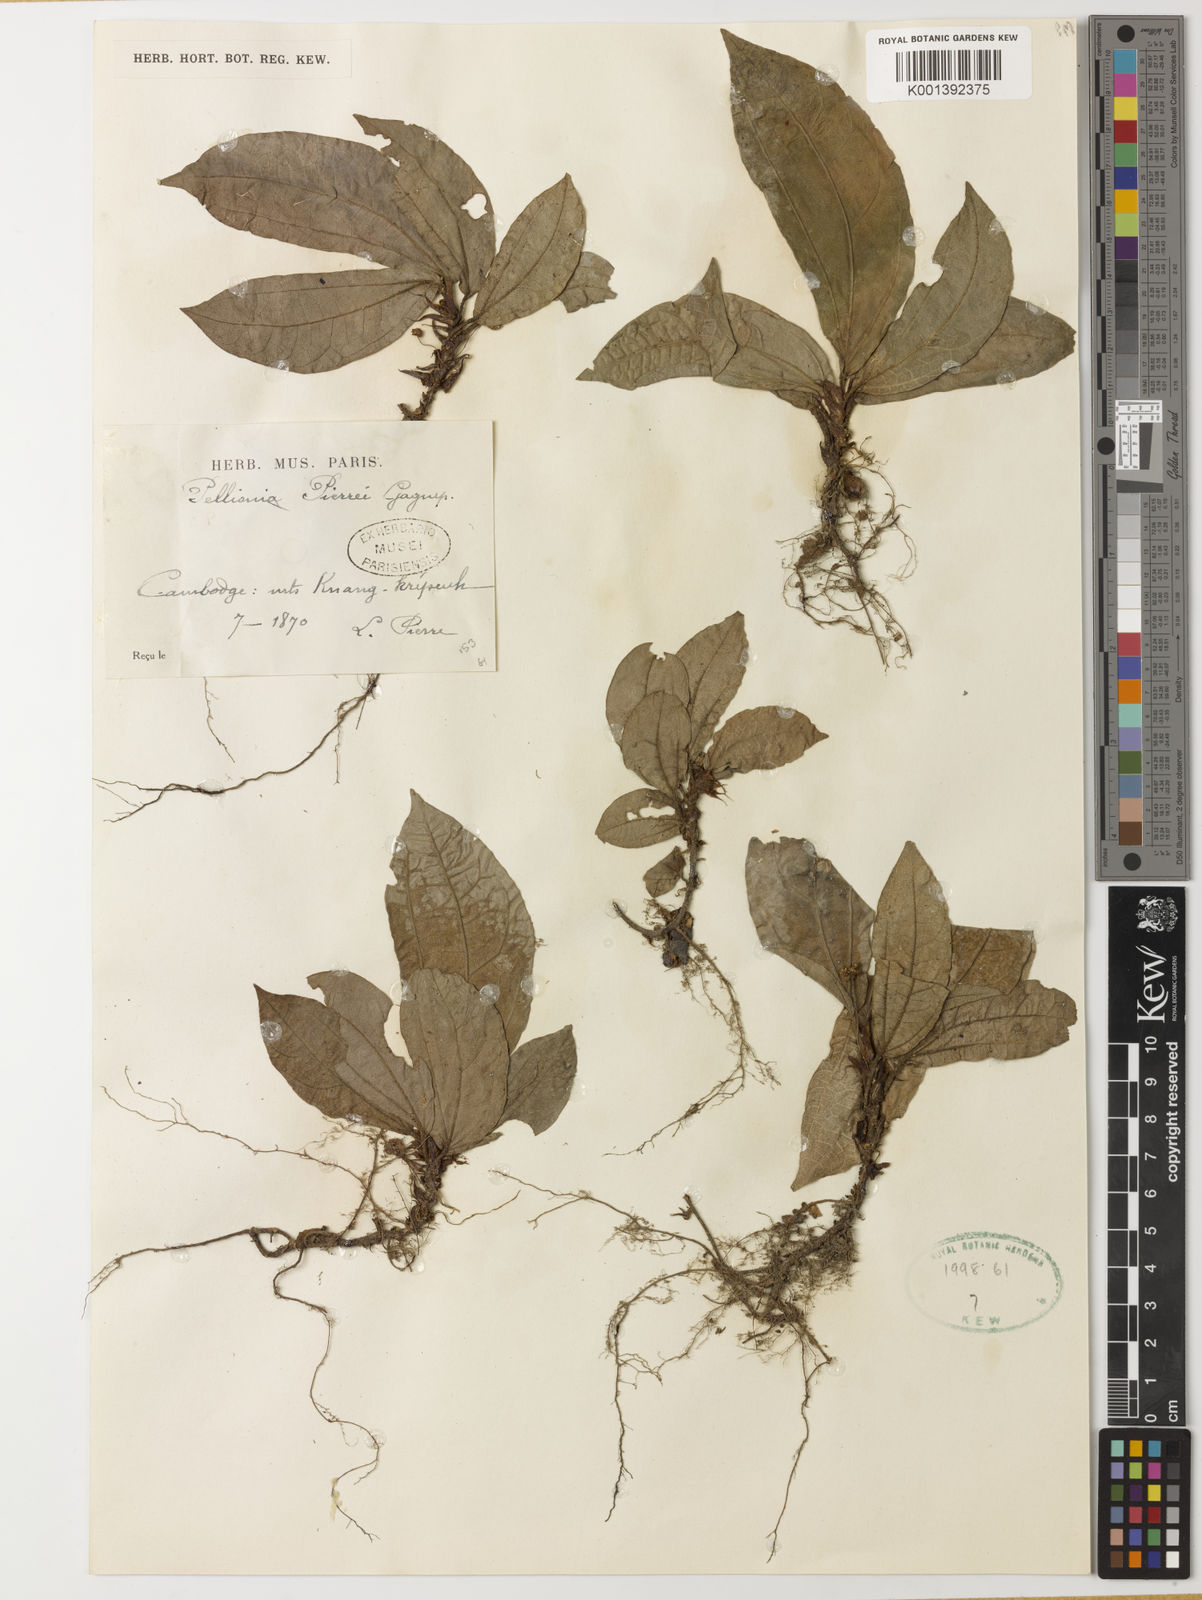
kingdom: Plantae
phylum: Tracheophyta
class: Magnoliopsida
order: Rosales
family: Urticaceae
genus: Elatostema
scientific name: Elatostema latifolium
